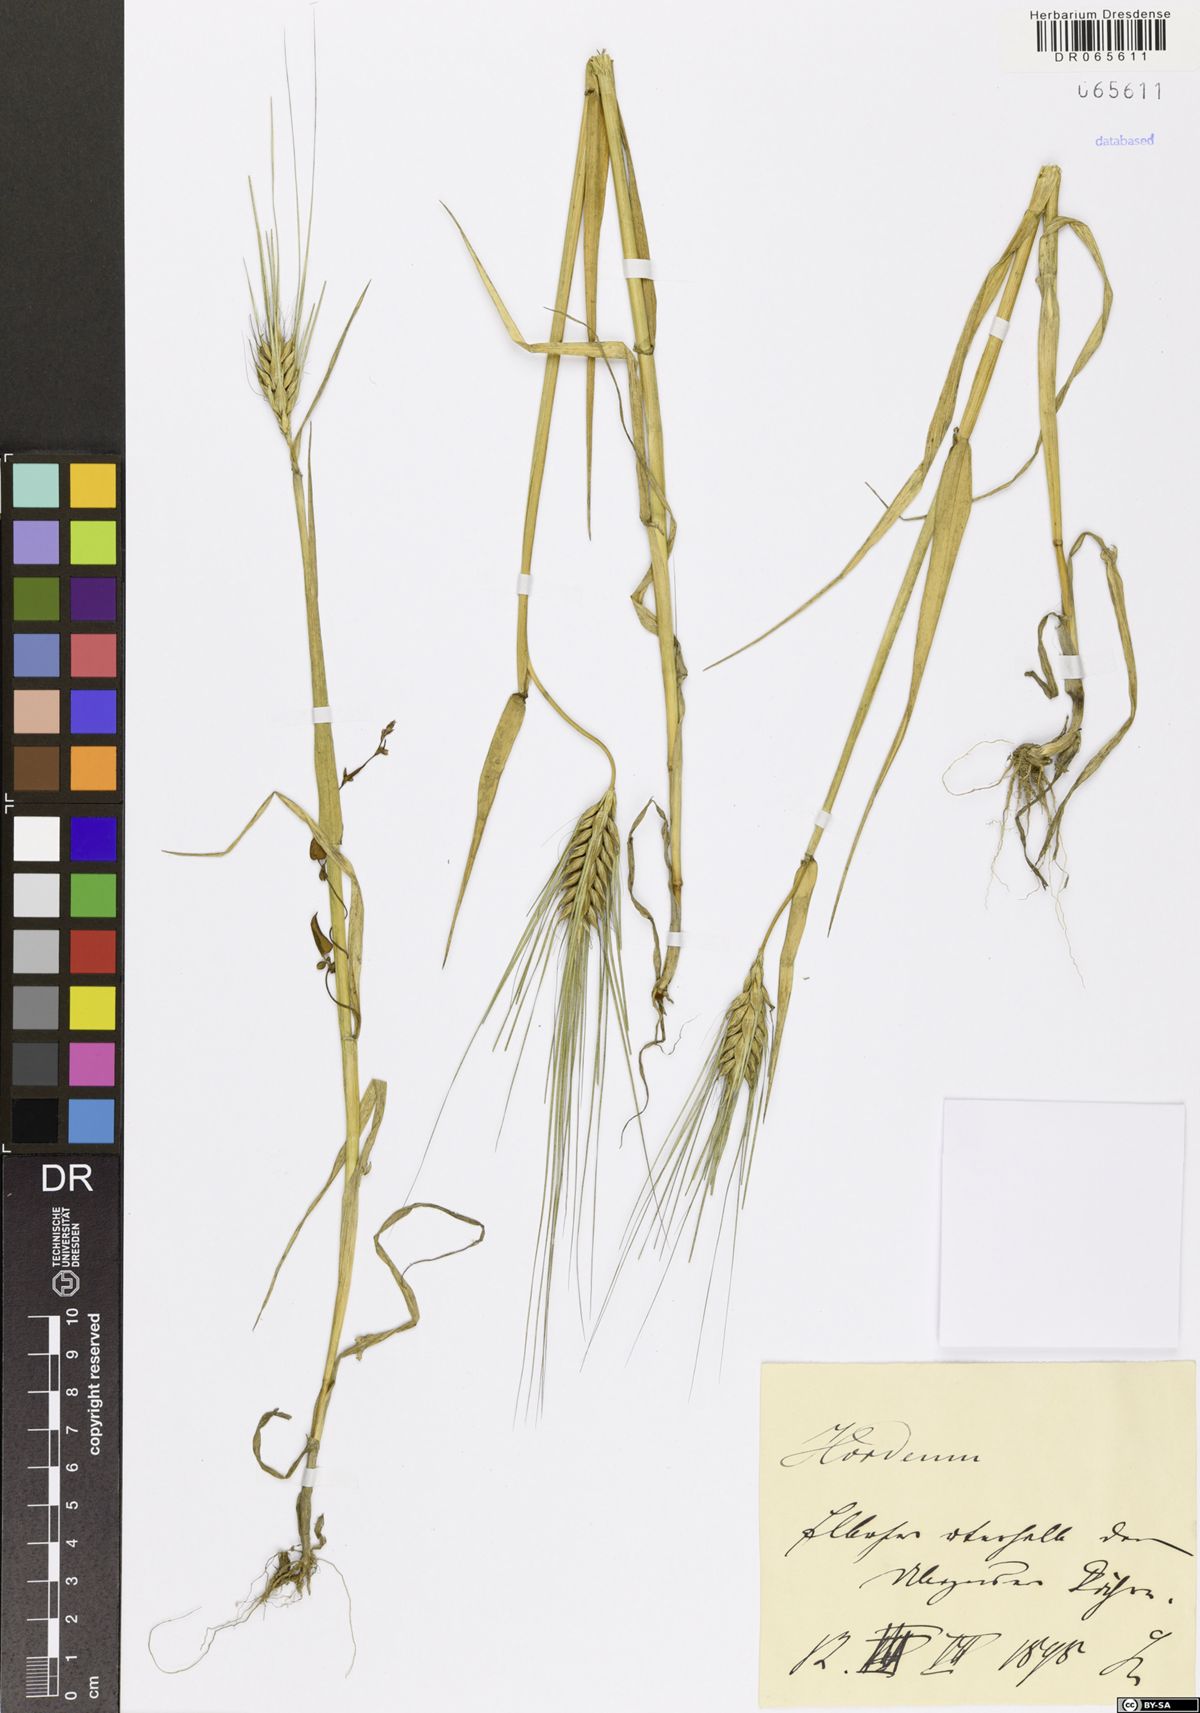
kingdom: Plantae
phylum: Tracheophyta
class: Liliopsida
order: Poales
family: Poaceae
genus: Hordeum
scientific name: Hordeum
